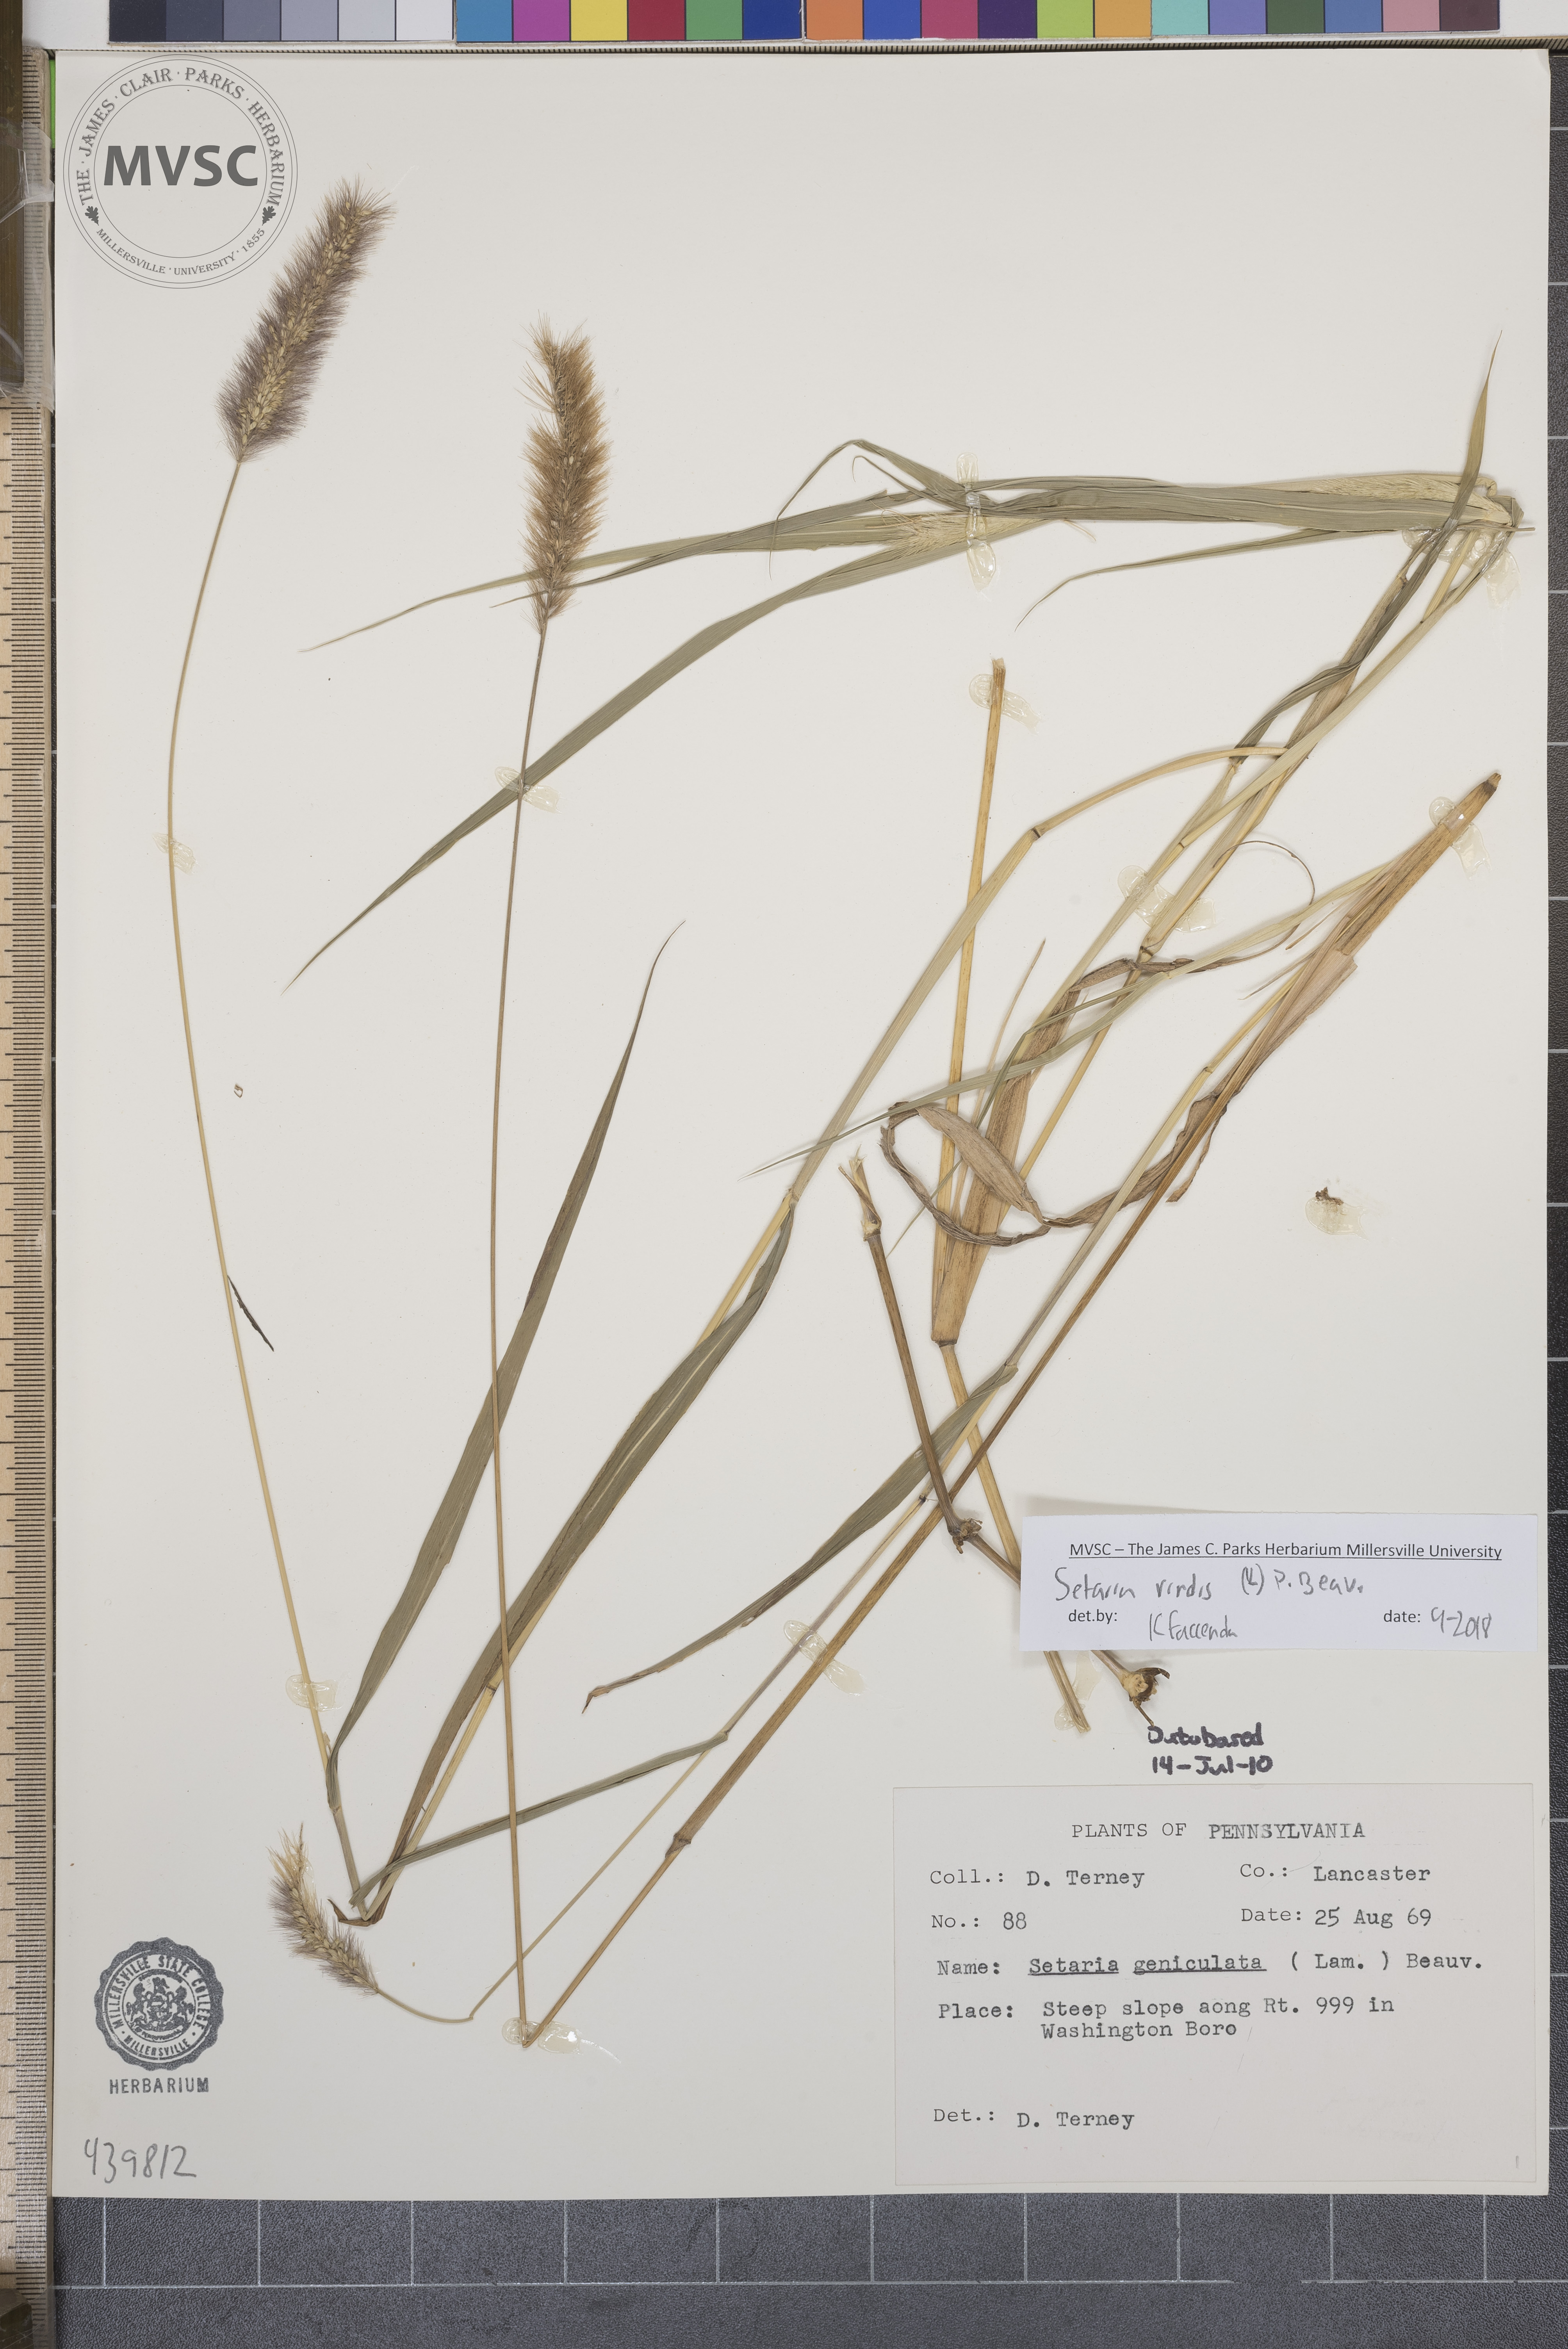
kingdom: Plantae
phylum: Tracheophyta
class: Liliopsida
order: Poales
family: Poaceae
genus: Setaria
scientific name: Setaria viridis
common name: Green bristlegrass
